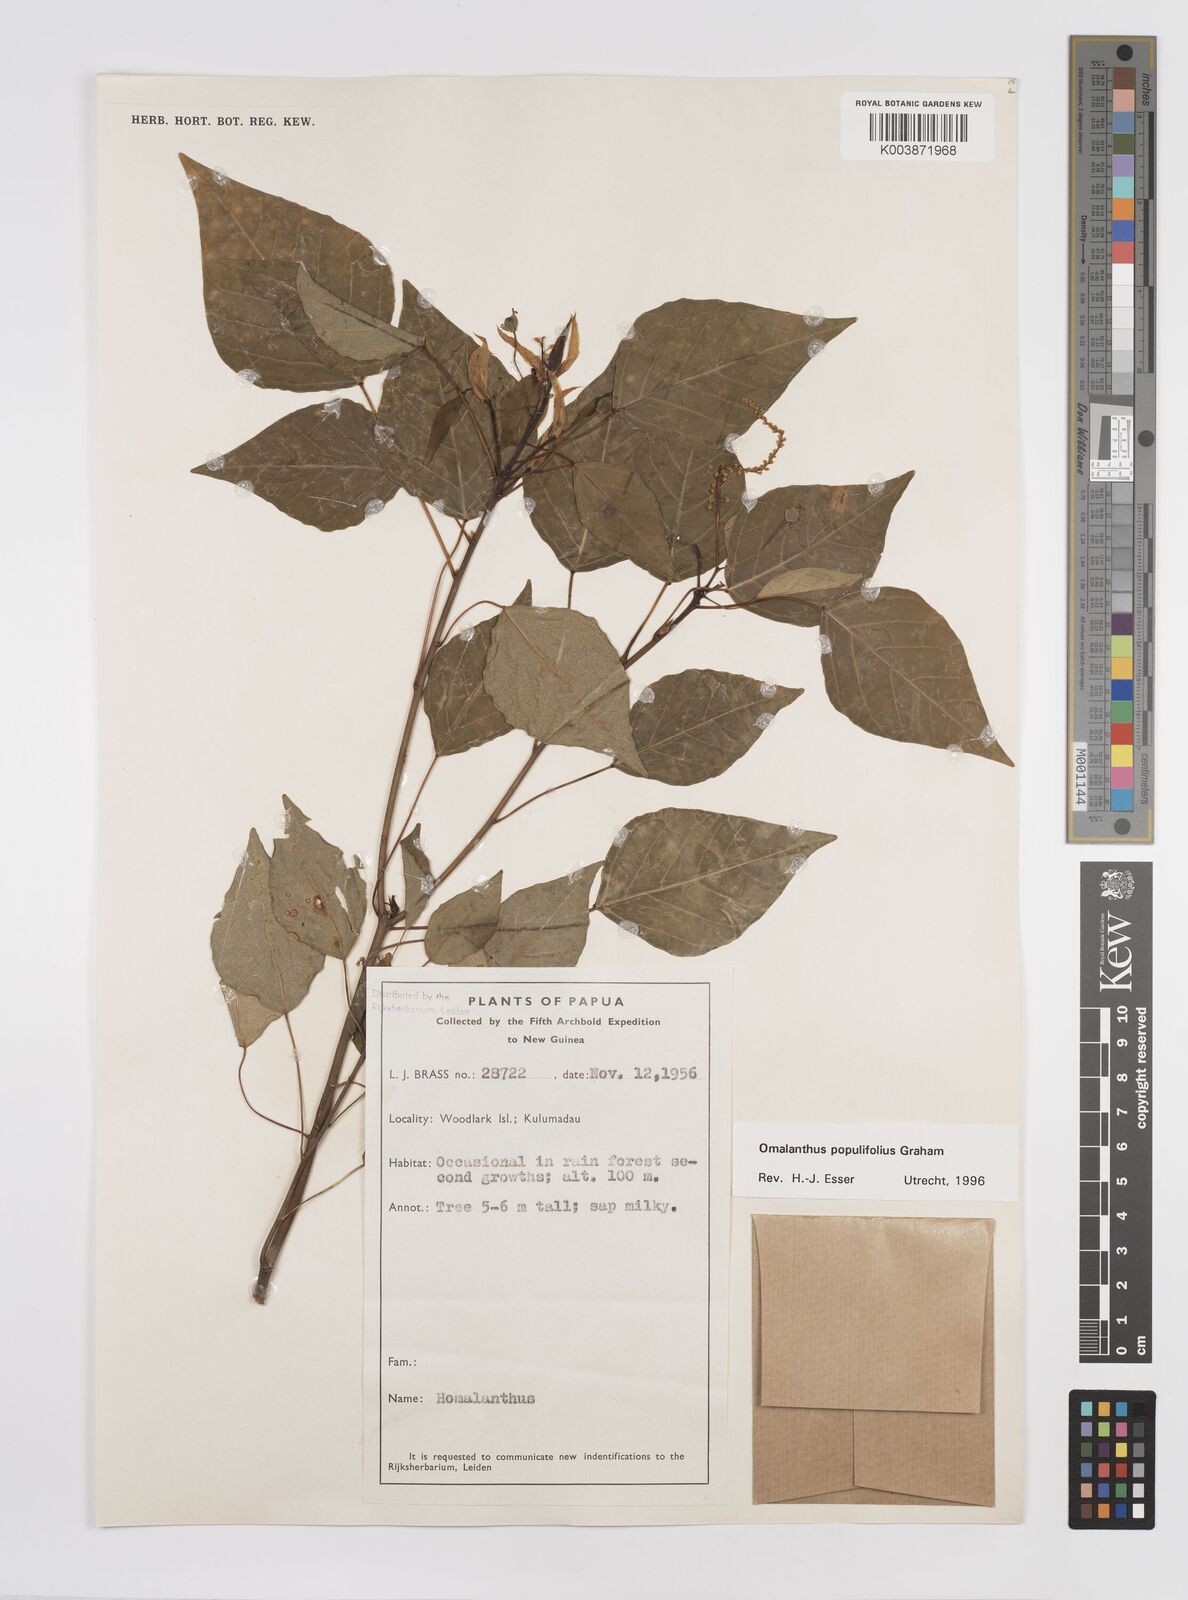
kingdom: Plantae
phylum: Tracheophyta
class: Magnoliopsida
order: Malpighiales
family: Euphorbiaceae
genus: Homalanthus
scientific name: Homalanthus populifolius
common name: Queensland poplar
